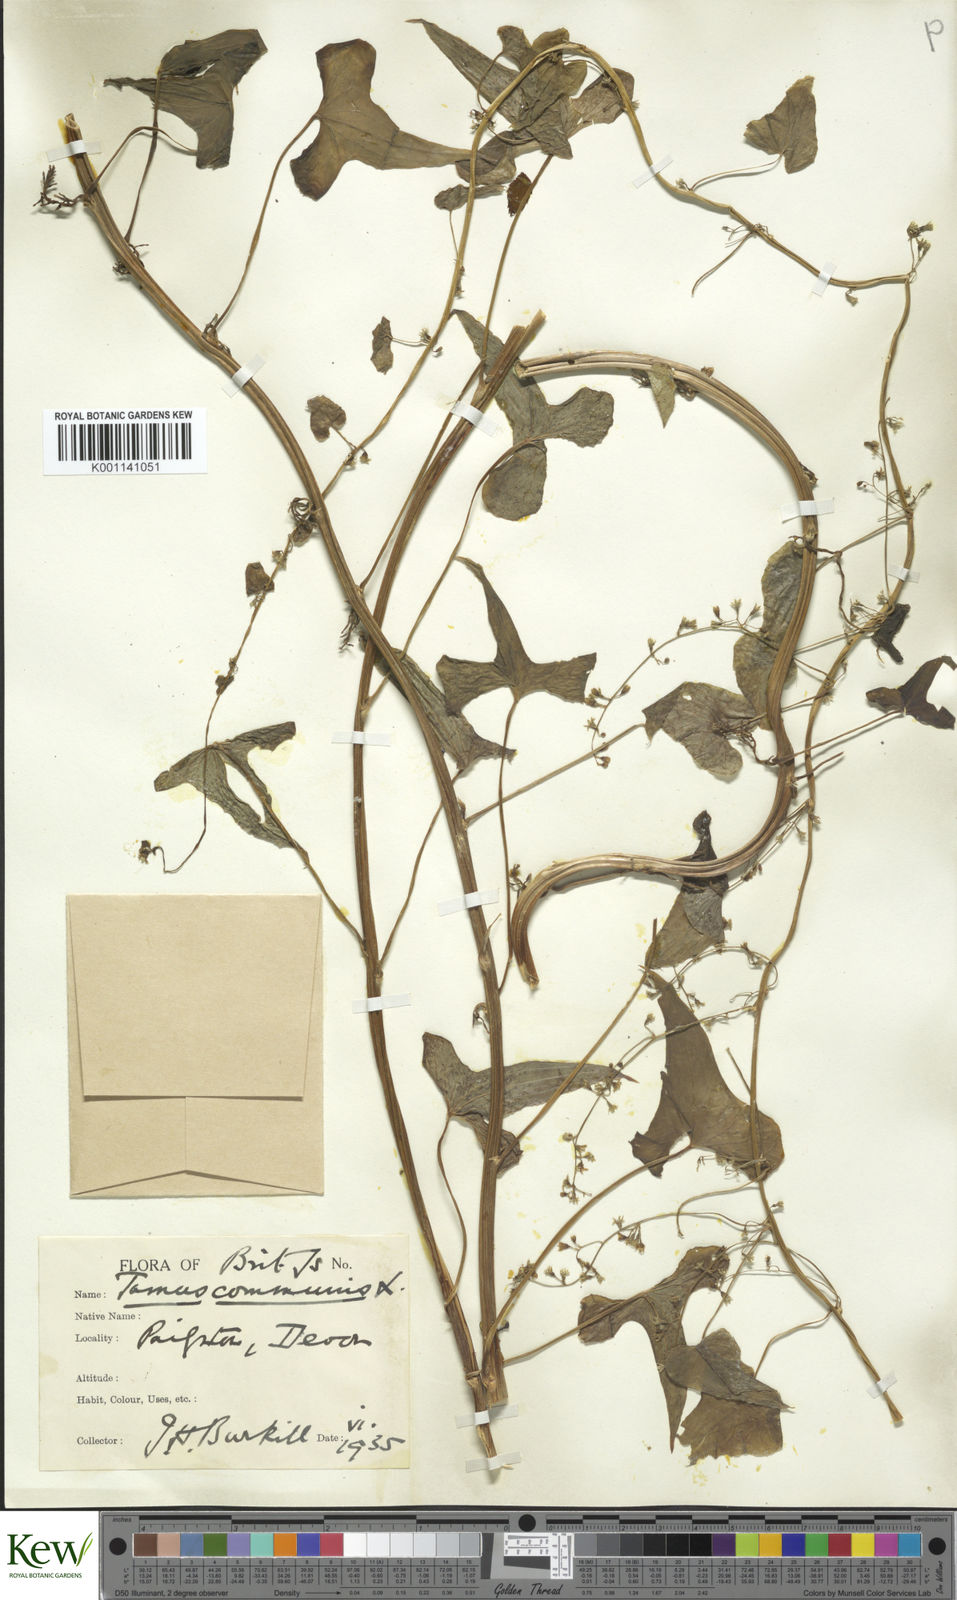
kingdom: Plantae
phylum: Tracheophyta
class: Liliopsida
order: Dioscoreales
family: Dioscoreaceae
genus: Dioscorea
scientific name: Dioscorea communis
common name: Black-bindweed
